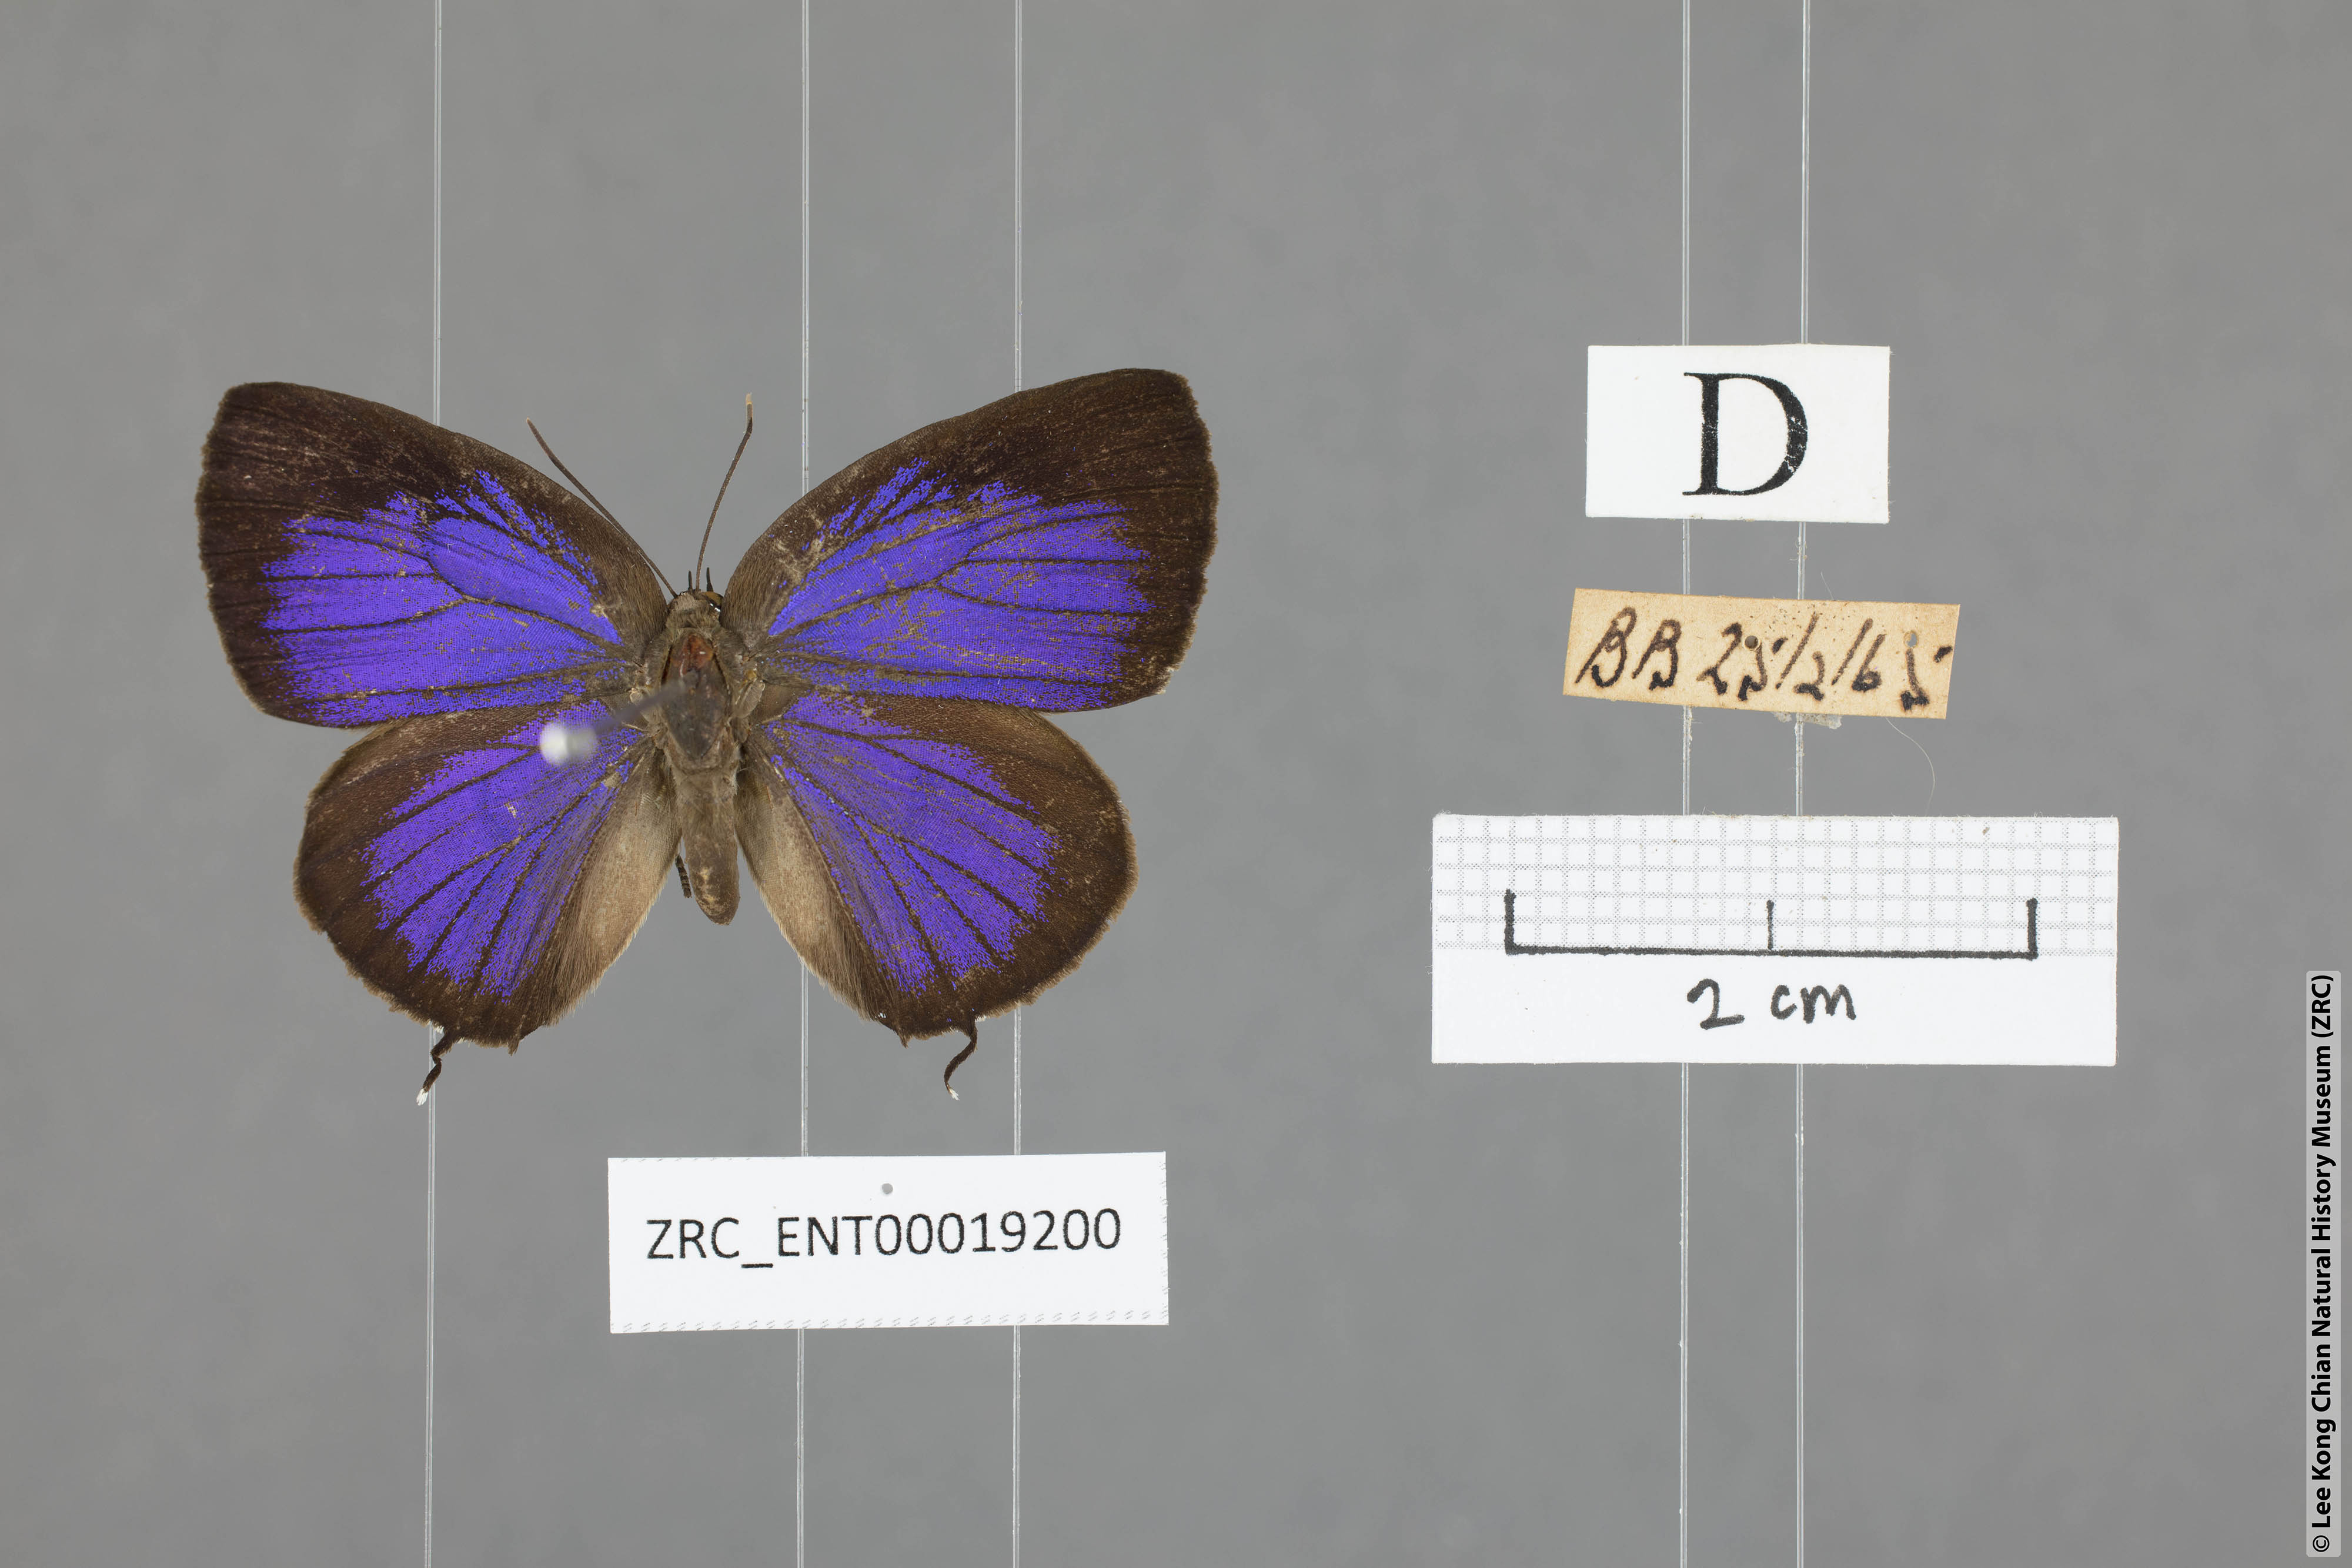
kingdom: Animalia
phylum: Arthropoda
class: Insecta
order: Lepidoptera
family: Lycaenidae
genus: Arhopala
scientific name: Arhopala aroa
